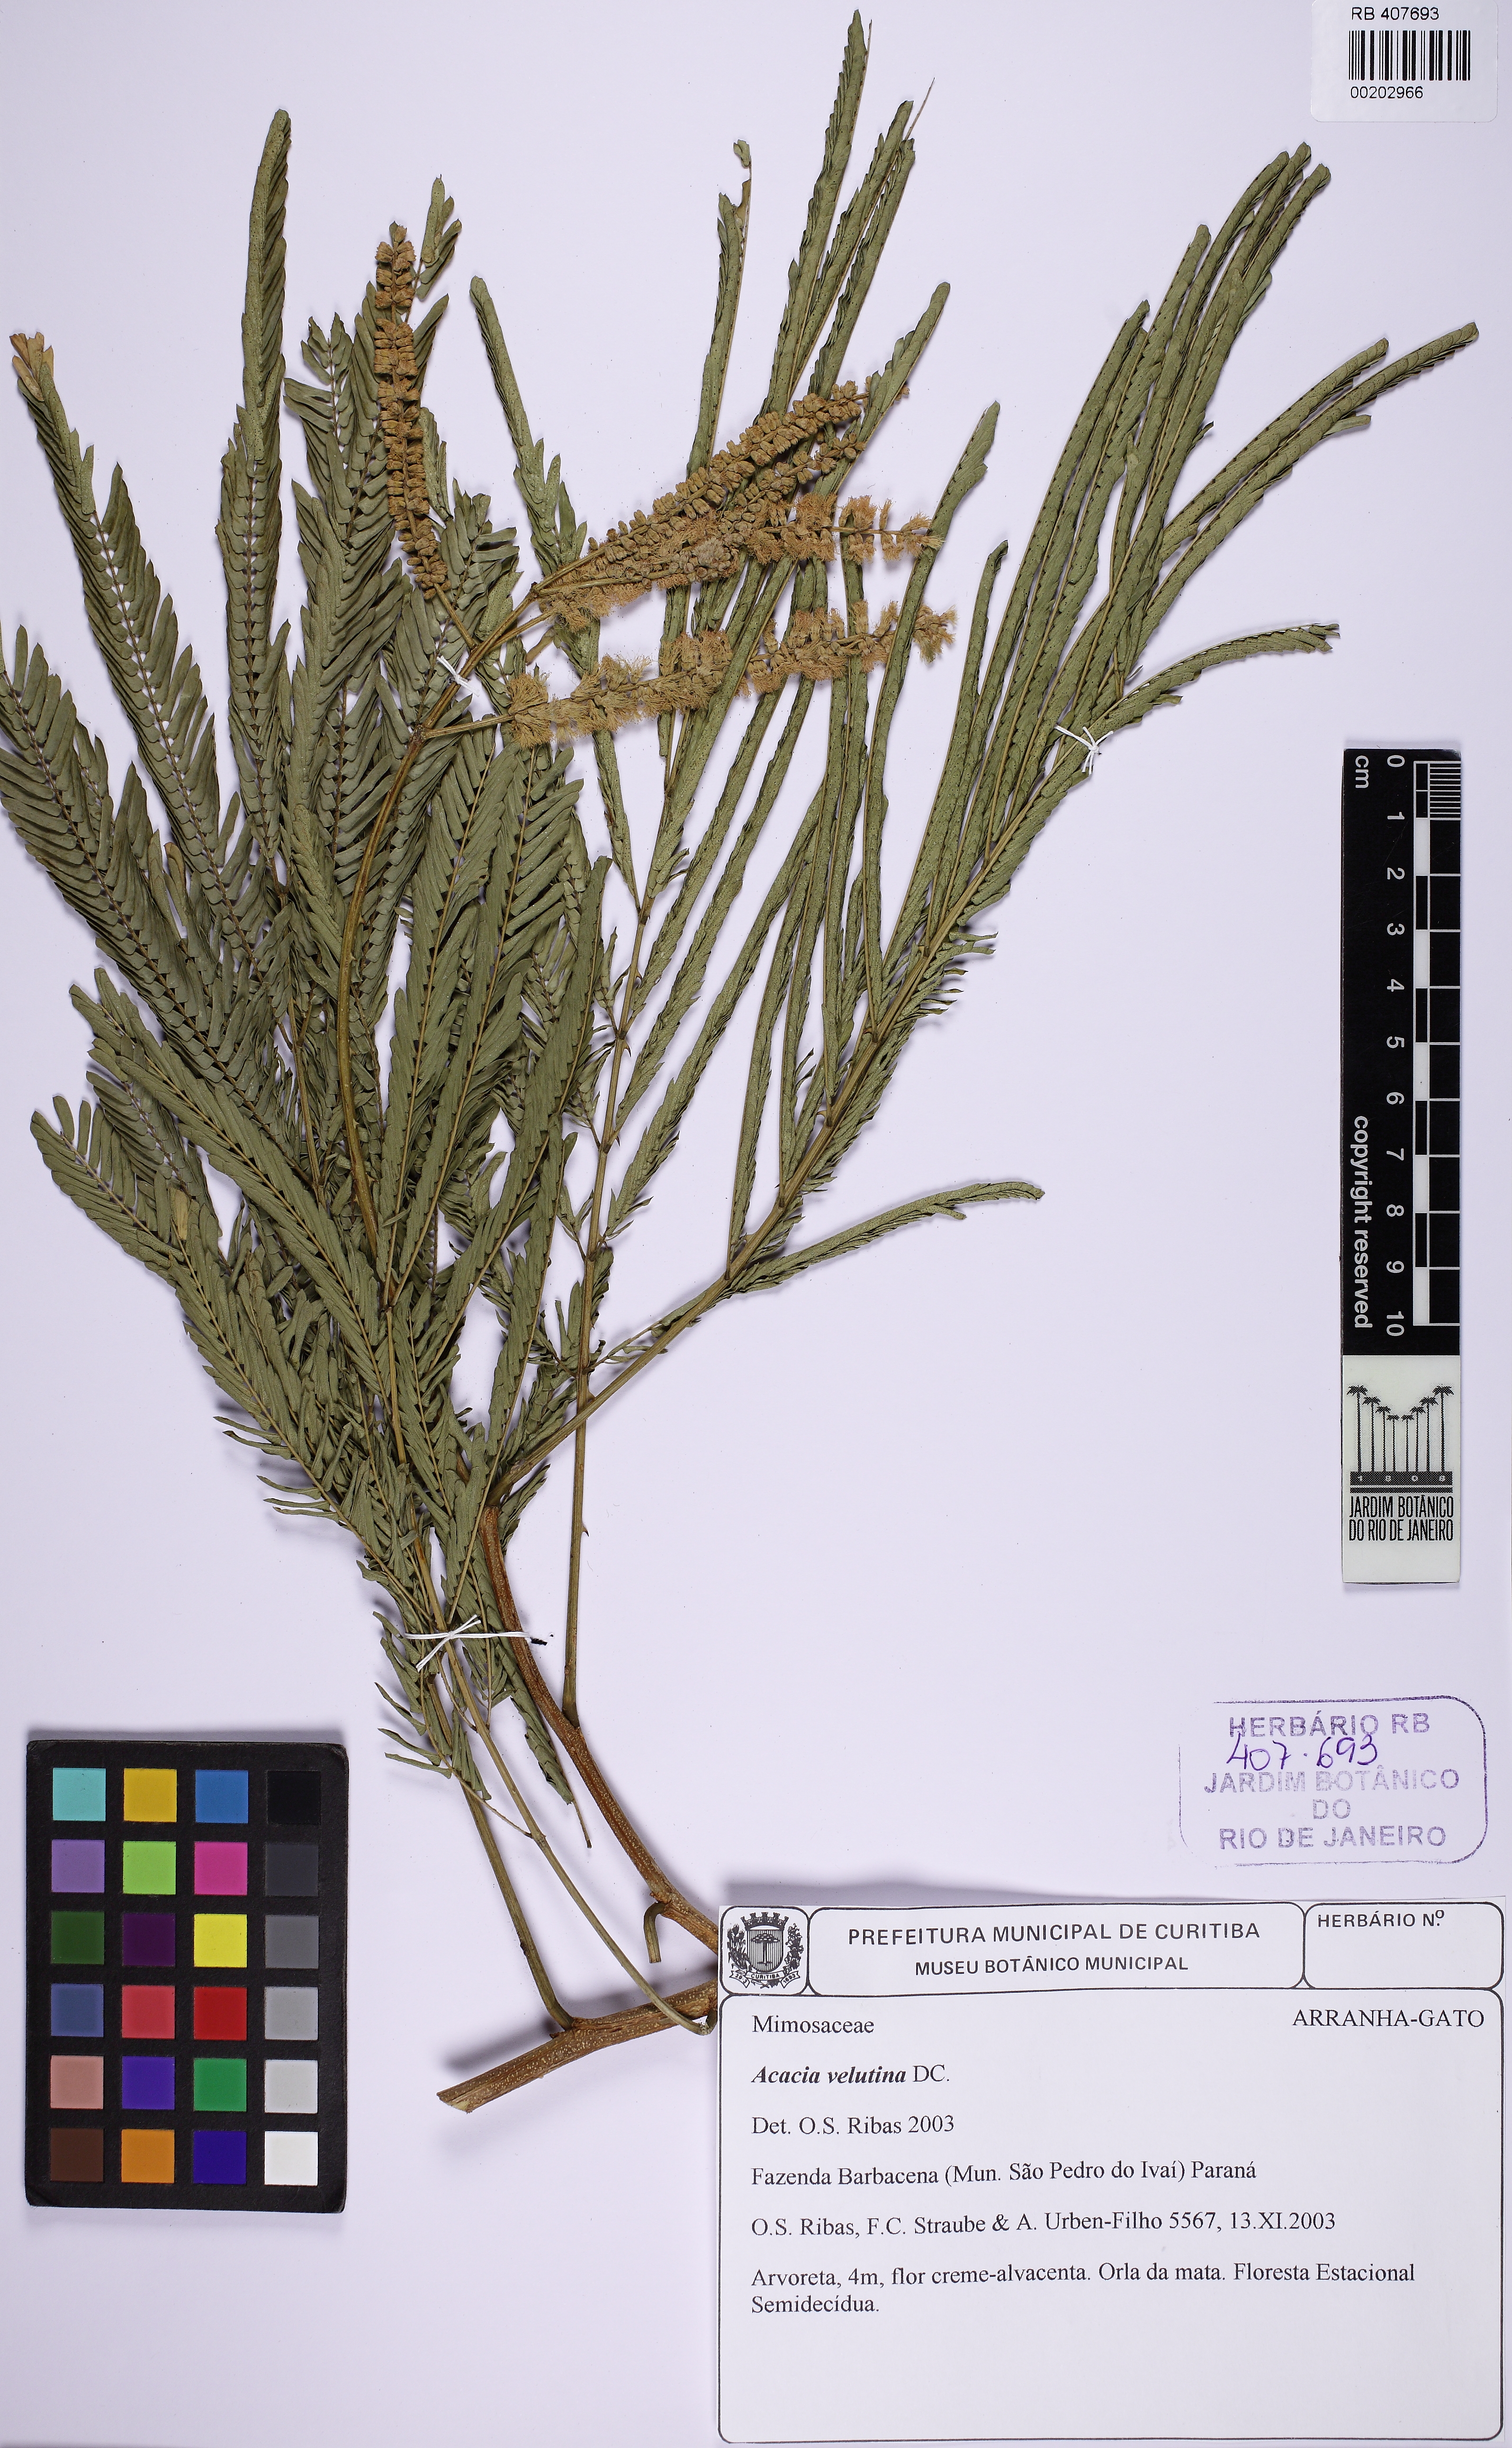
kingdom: Plantae
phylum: Tracheophyta
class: Magnoliopsida
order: Fabales
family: Fabaceae
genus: Senegalia
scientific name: Senegalia monacantha
